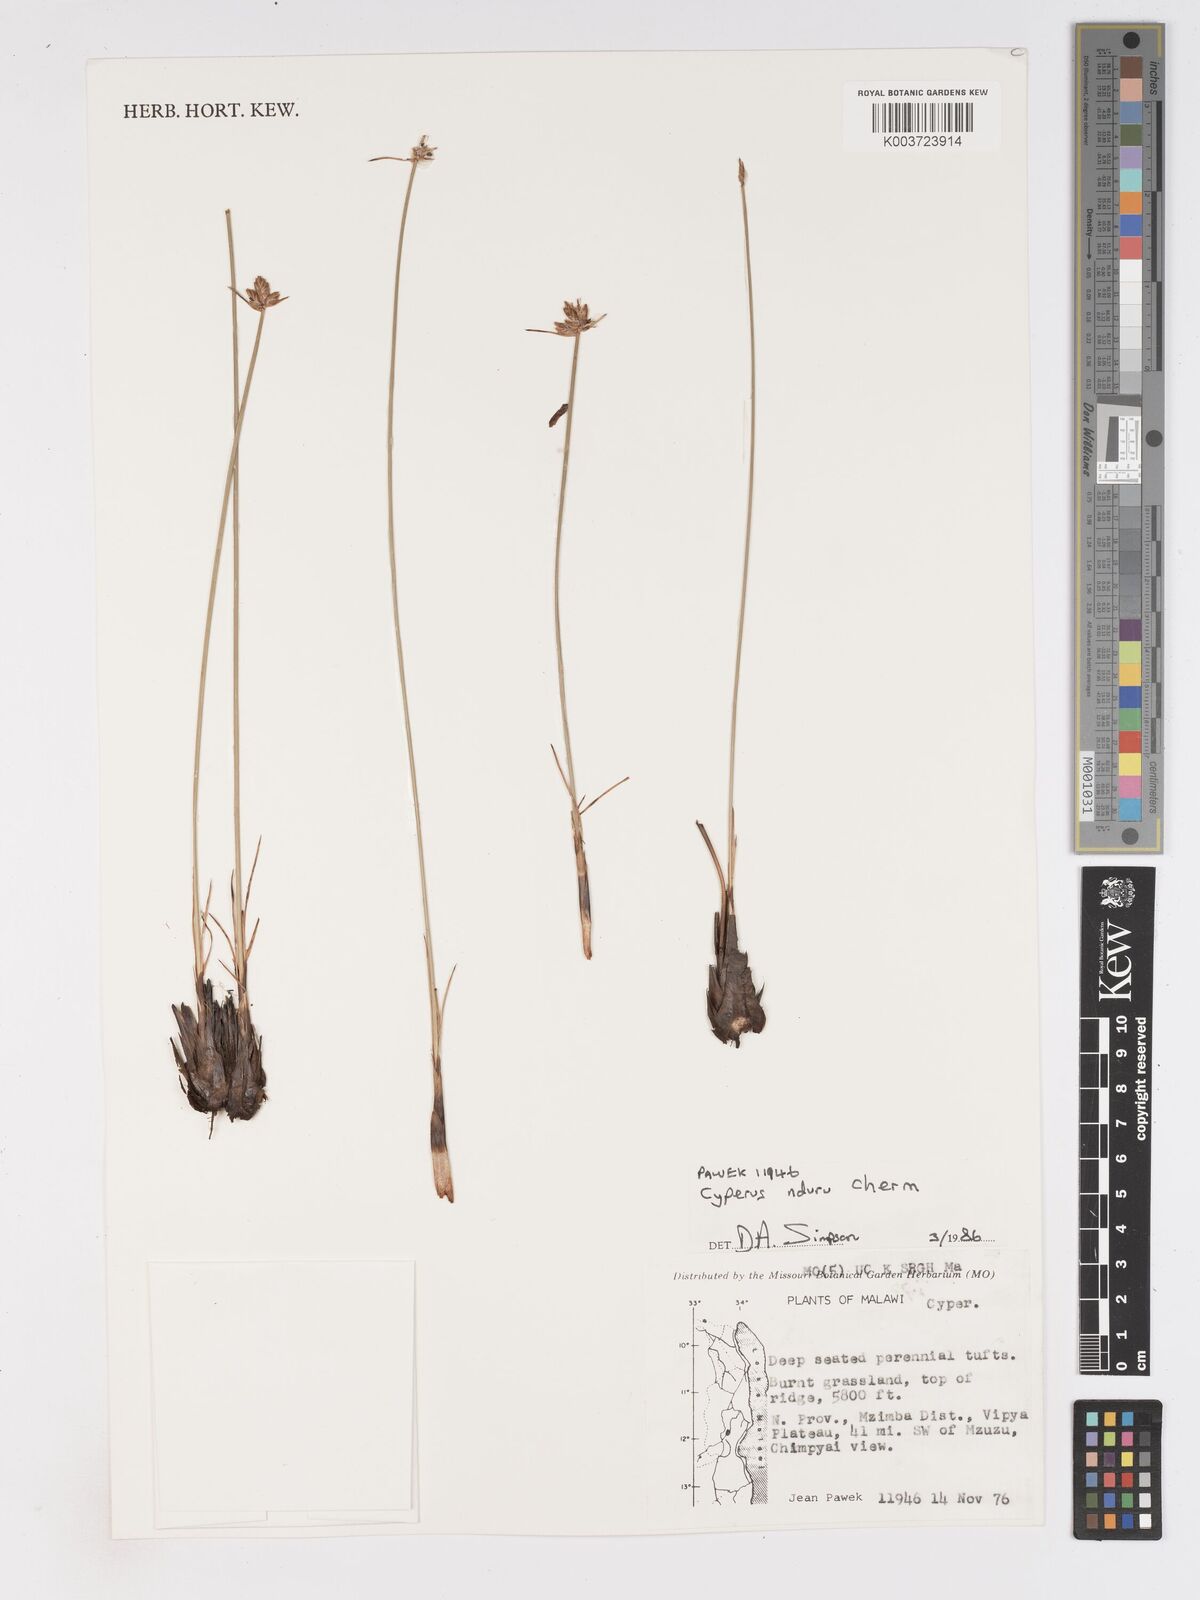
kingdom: Plantae
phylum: Tracheophyta
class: Liliopsida
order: Poales
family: Cyperaceae
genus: Cyperus
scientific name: Cyperus nduru
